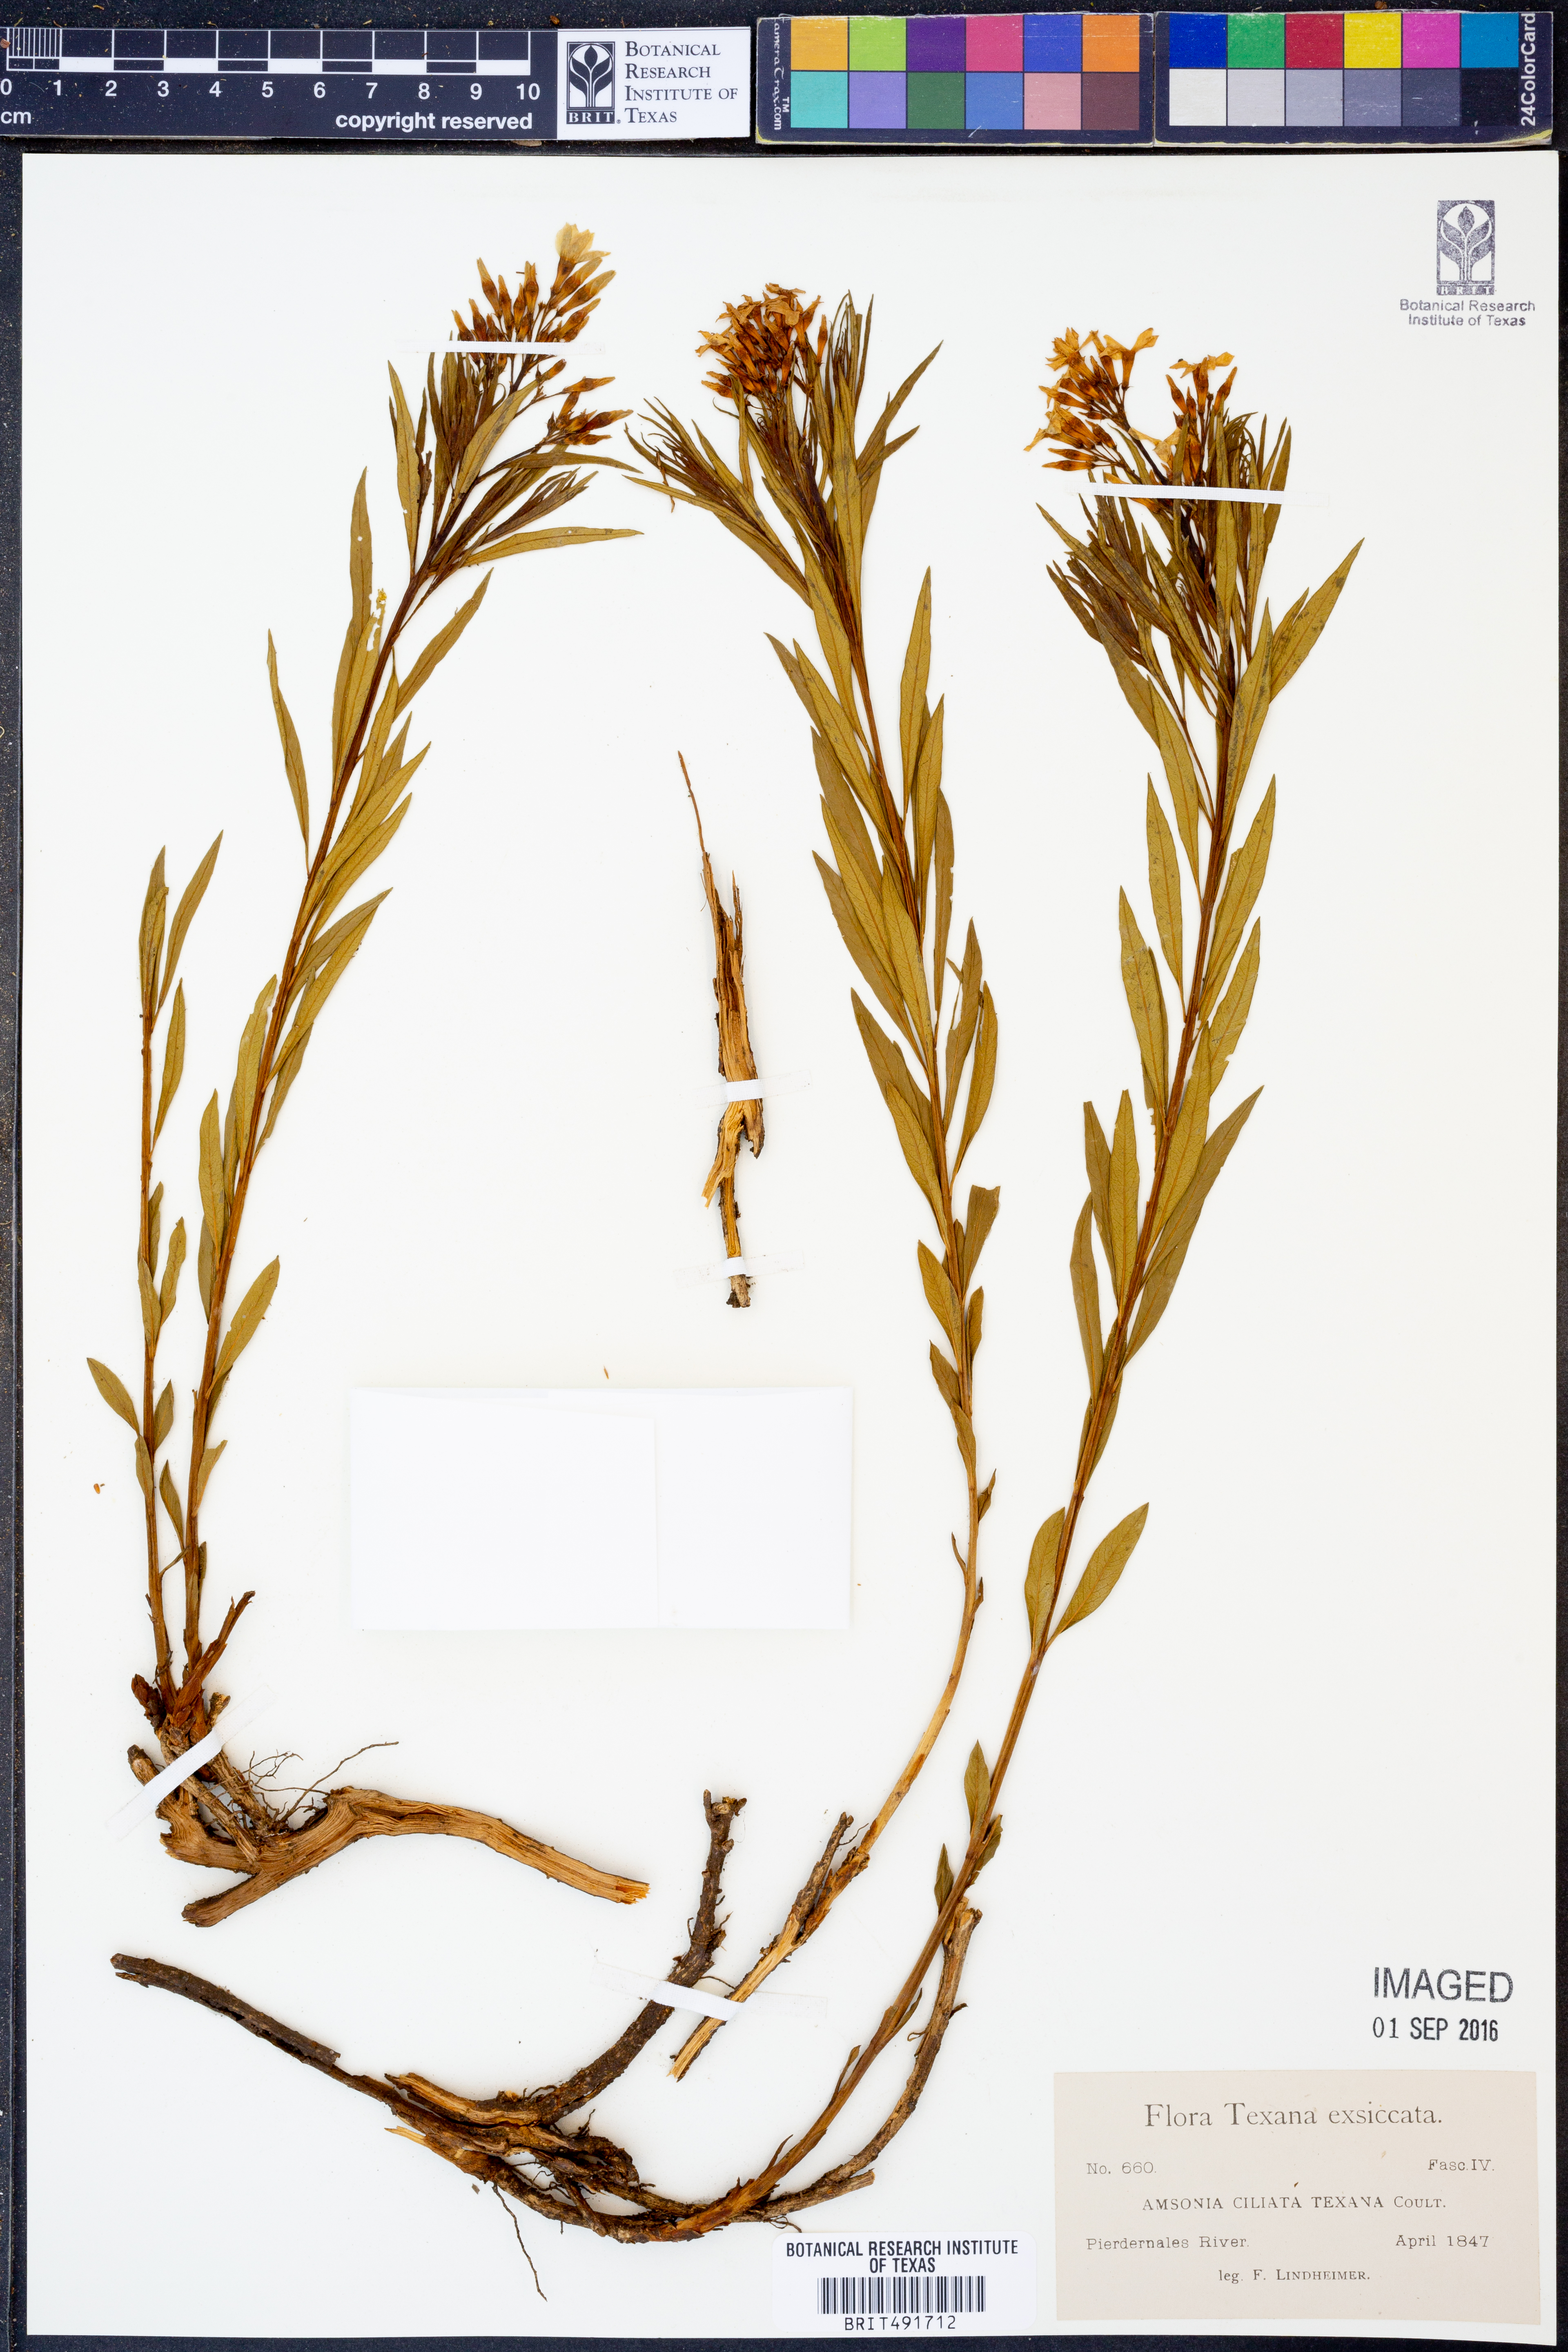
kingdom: Plantae
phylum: Tracheophyta
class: Magnoliopsida
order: Gentianales
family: Apocynaceae
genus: Amsonia
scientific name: Amsonia ciliata
